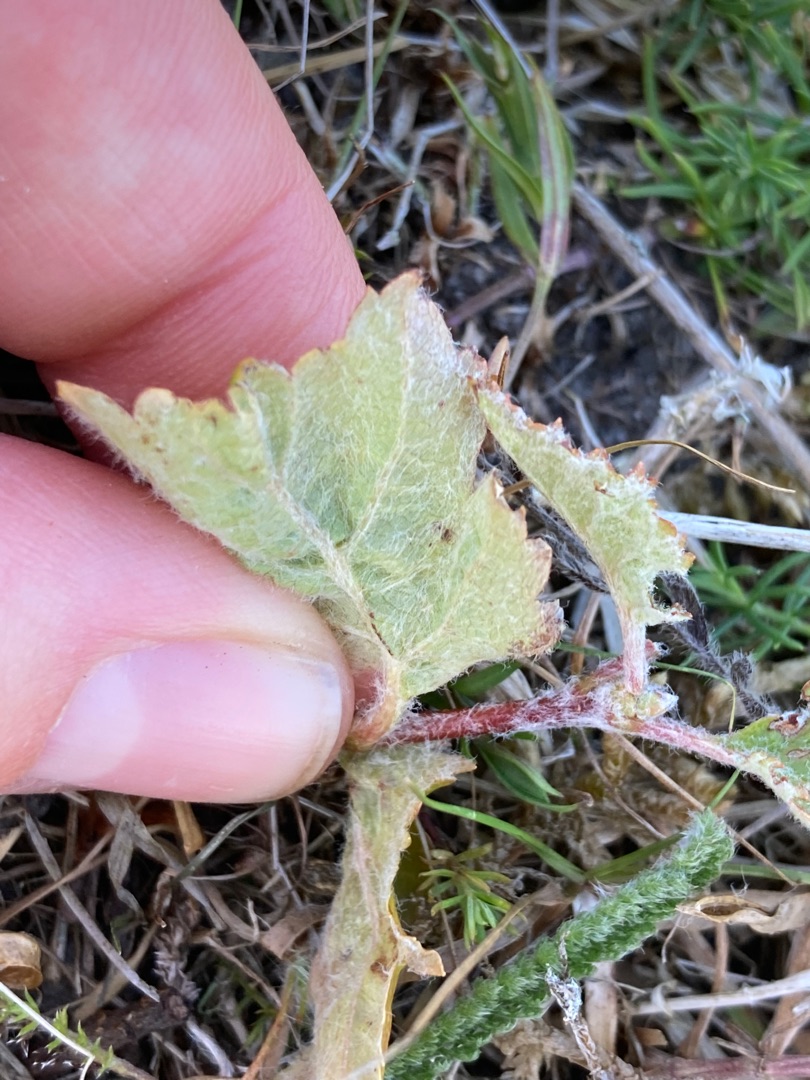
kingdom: Plantae
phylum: Tracheophyta
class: Magnoliopsida
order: Rosales
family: Rosaceae
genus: Scandosorbus
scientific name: Scandosorbus intermedia
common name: Selje-røn
